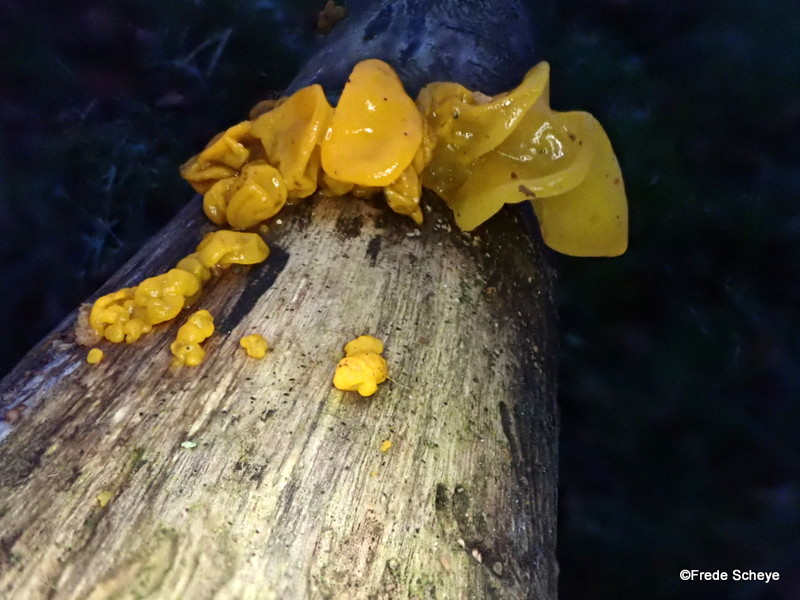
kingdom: Fungi
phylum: Basidiomycota
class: Tremellomycetes
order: Tremellales
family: Tremellaceae
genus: Tremella
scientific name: Tremella mesenterica
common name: gul bævresvamp
